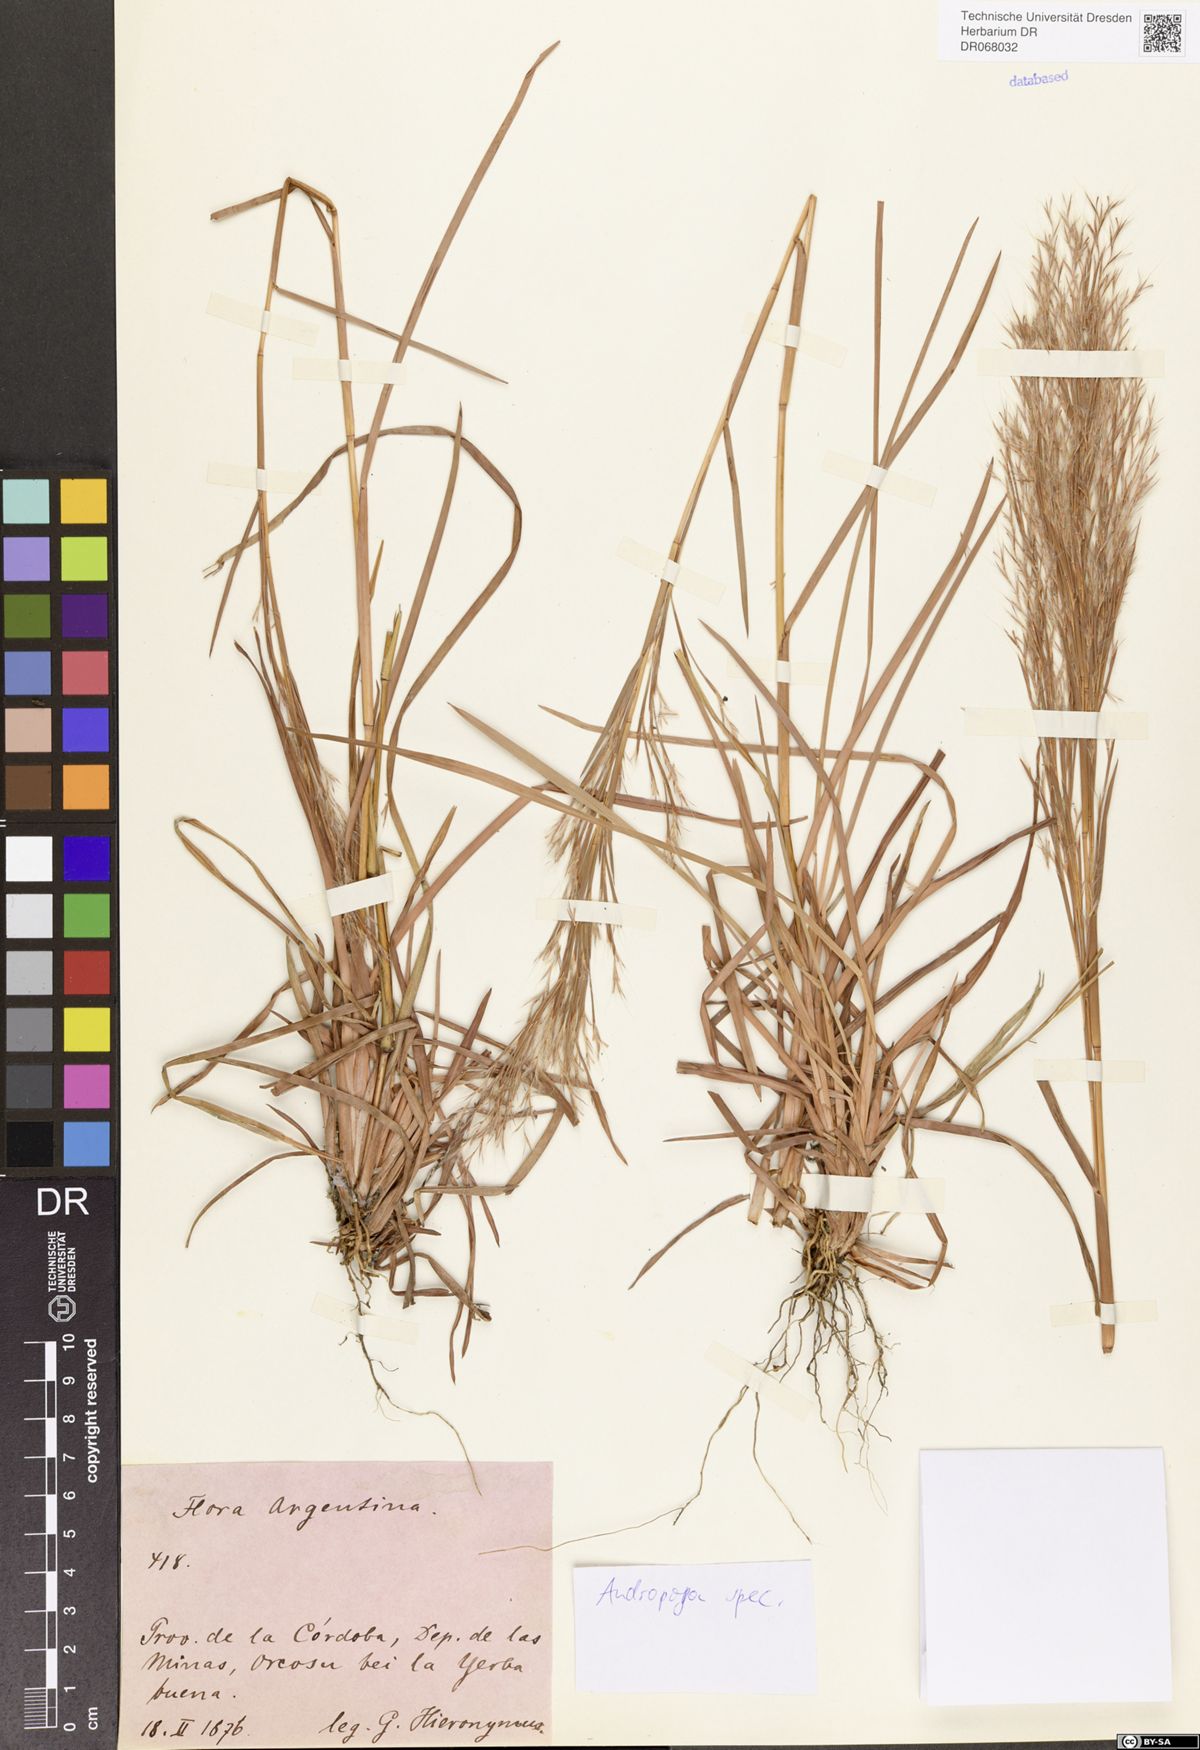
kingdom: Plantae
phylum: Tracheophyta
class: Liliopsida
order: Poales
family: Poaceae
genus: Andropogon
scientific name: Andropogon
